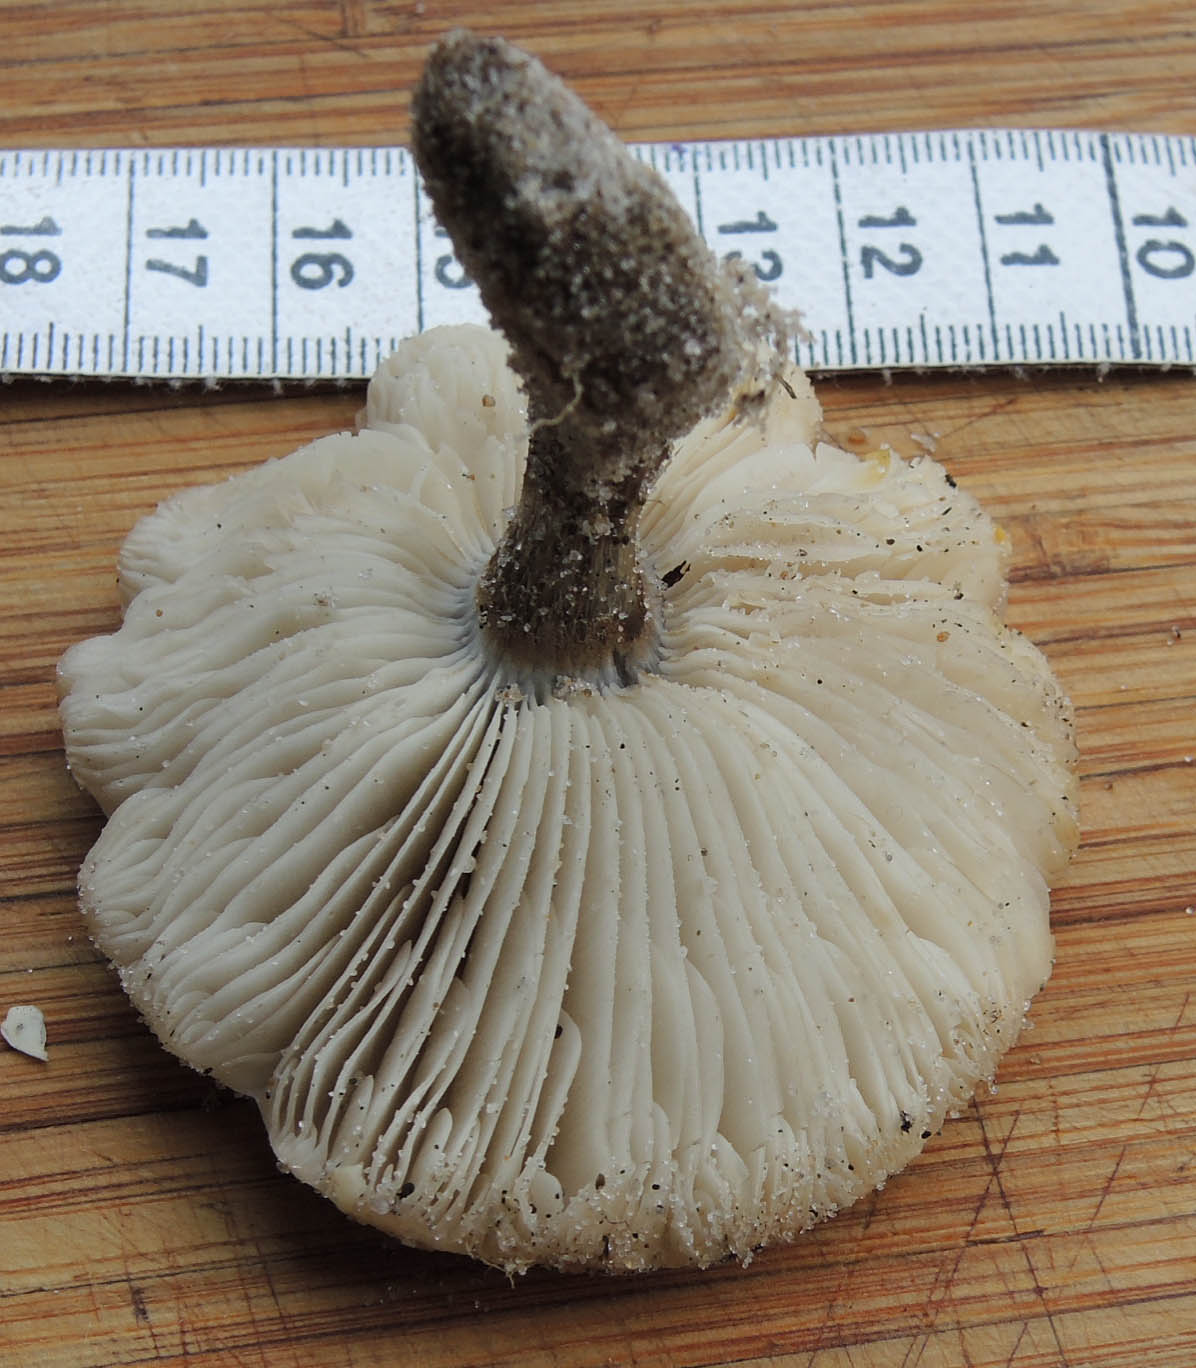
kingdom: Fungi
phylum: Basidiomycota
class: Agaricomycetes
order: Agaricales
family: Tricholomataceae
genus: Melanoleuca
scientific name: Melanoleuca ammophila
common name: gråbladet munkehat
